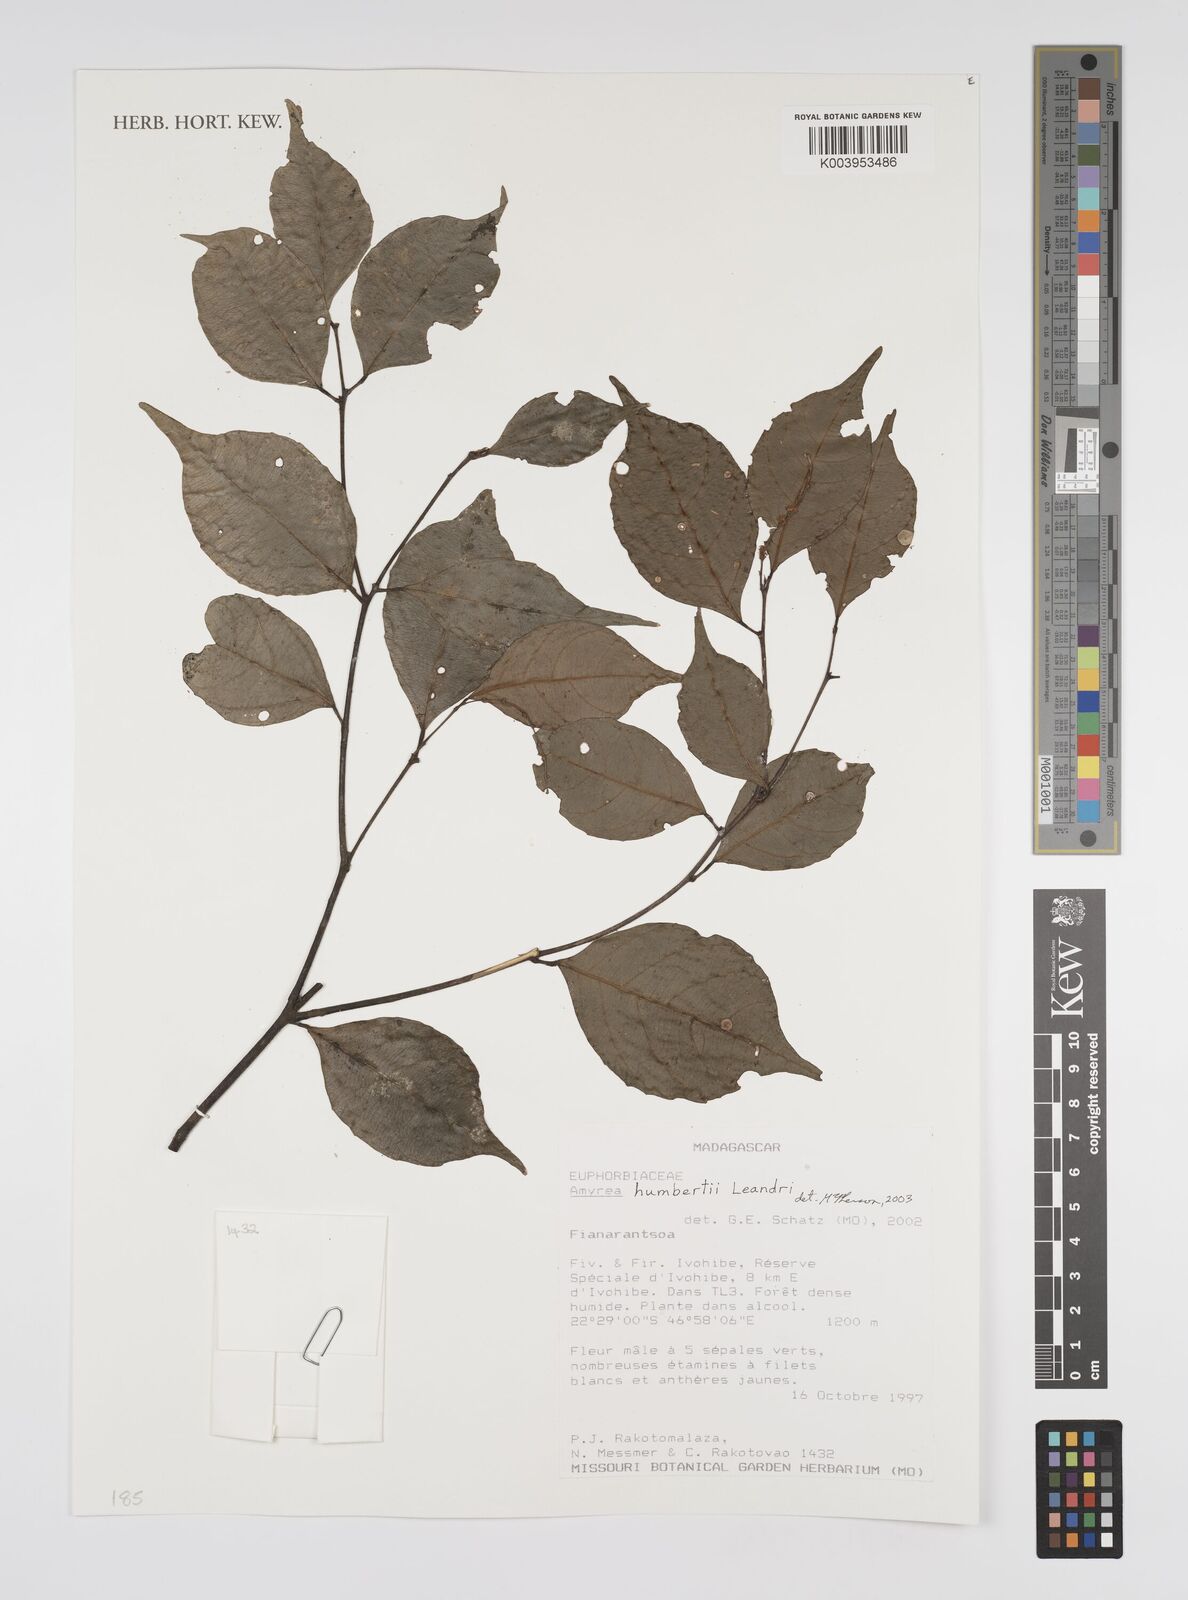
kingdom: Plantae
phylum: Tracheophyta
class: Magnoliopsida
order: Malpighiales
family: Euphorbiaceae
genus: Amyrea
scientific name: Amyrea humbertii
